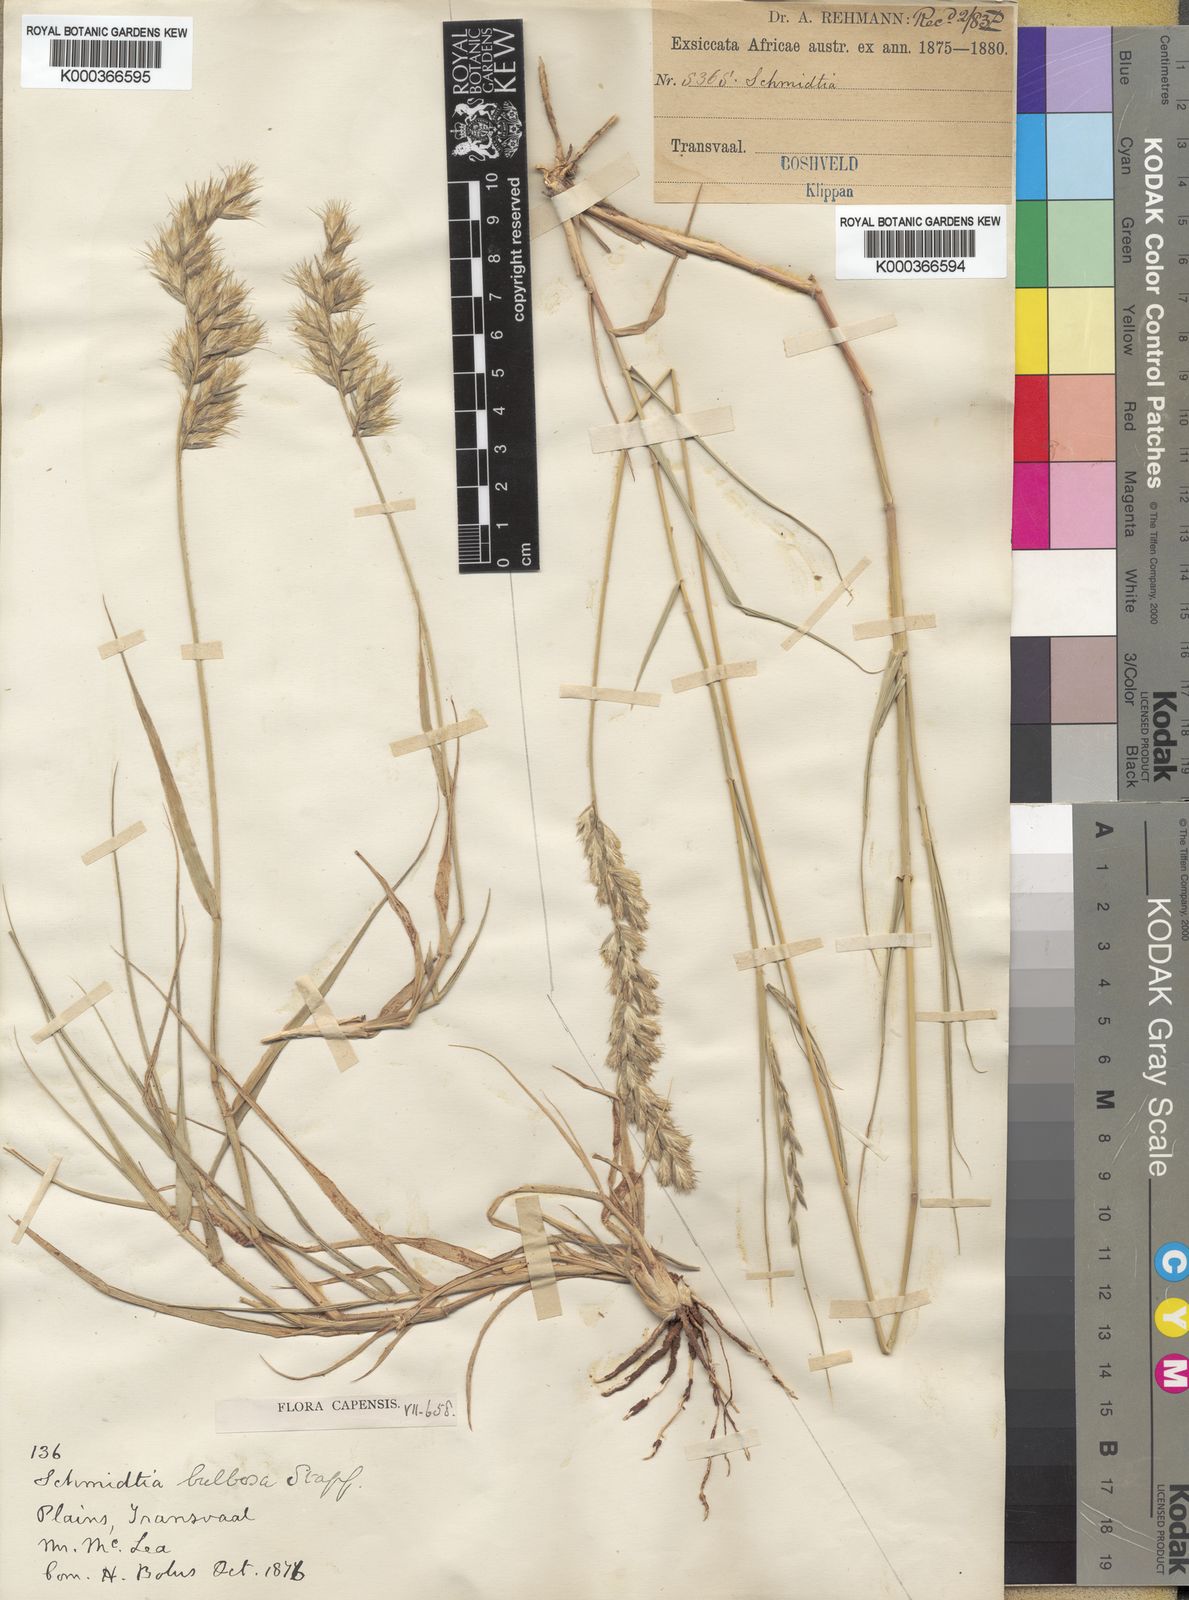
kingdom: Plantae
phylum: Tracheophyta
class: Liliopsida
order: Poales
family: Poaceae
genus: Schmidtia
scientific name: Schmidtia pappophoroides
